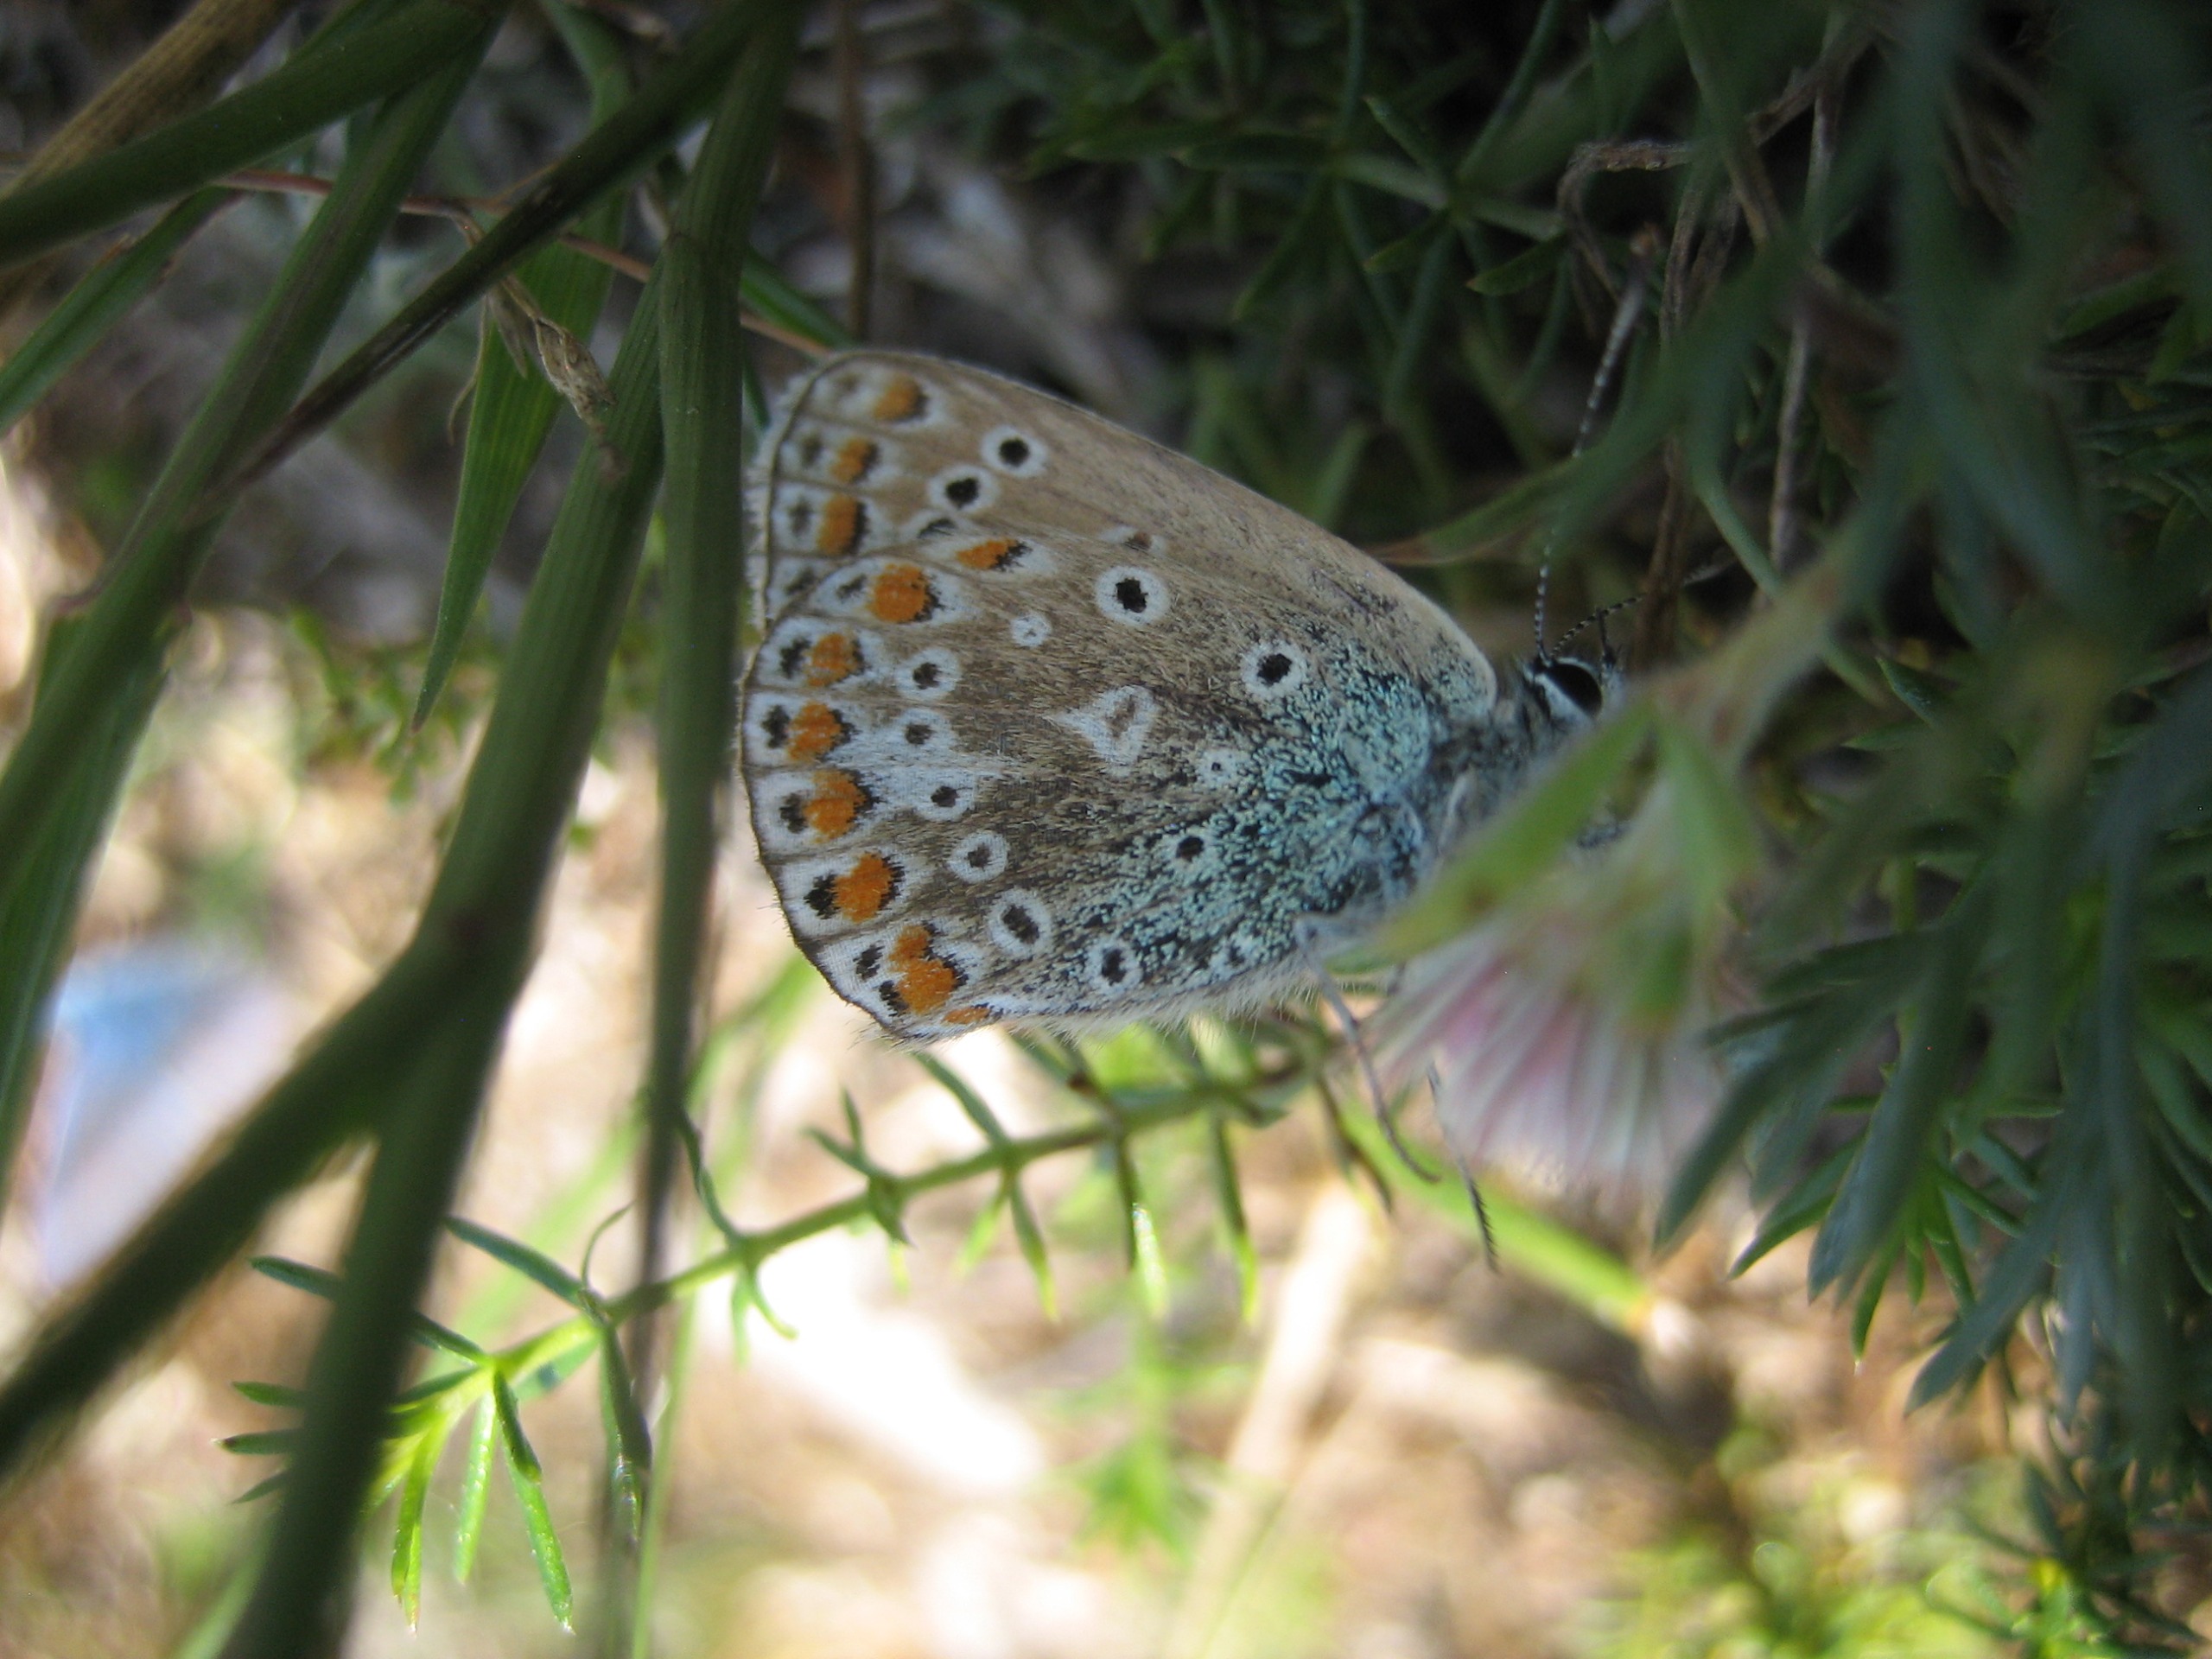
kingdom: Animalia
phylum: Arthropoda
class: Insecta
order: Lepidoptera
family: Lycaenidae
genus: Polyommatus
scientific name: Polyommatus icarus
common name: Almindelig blåfugl
